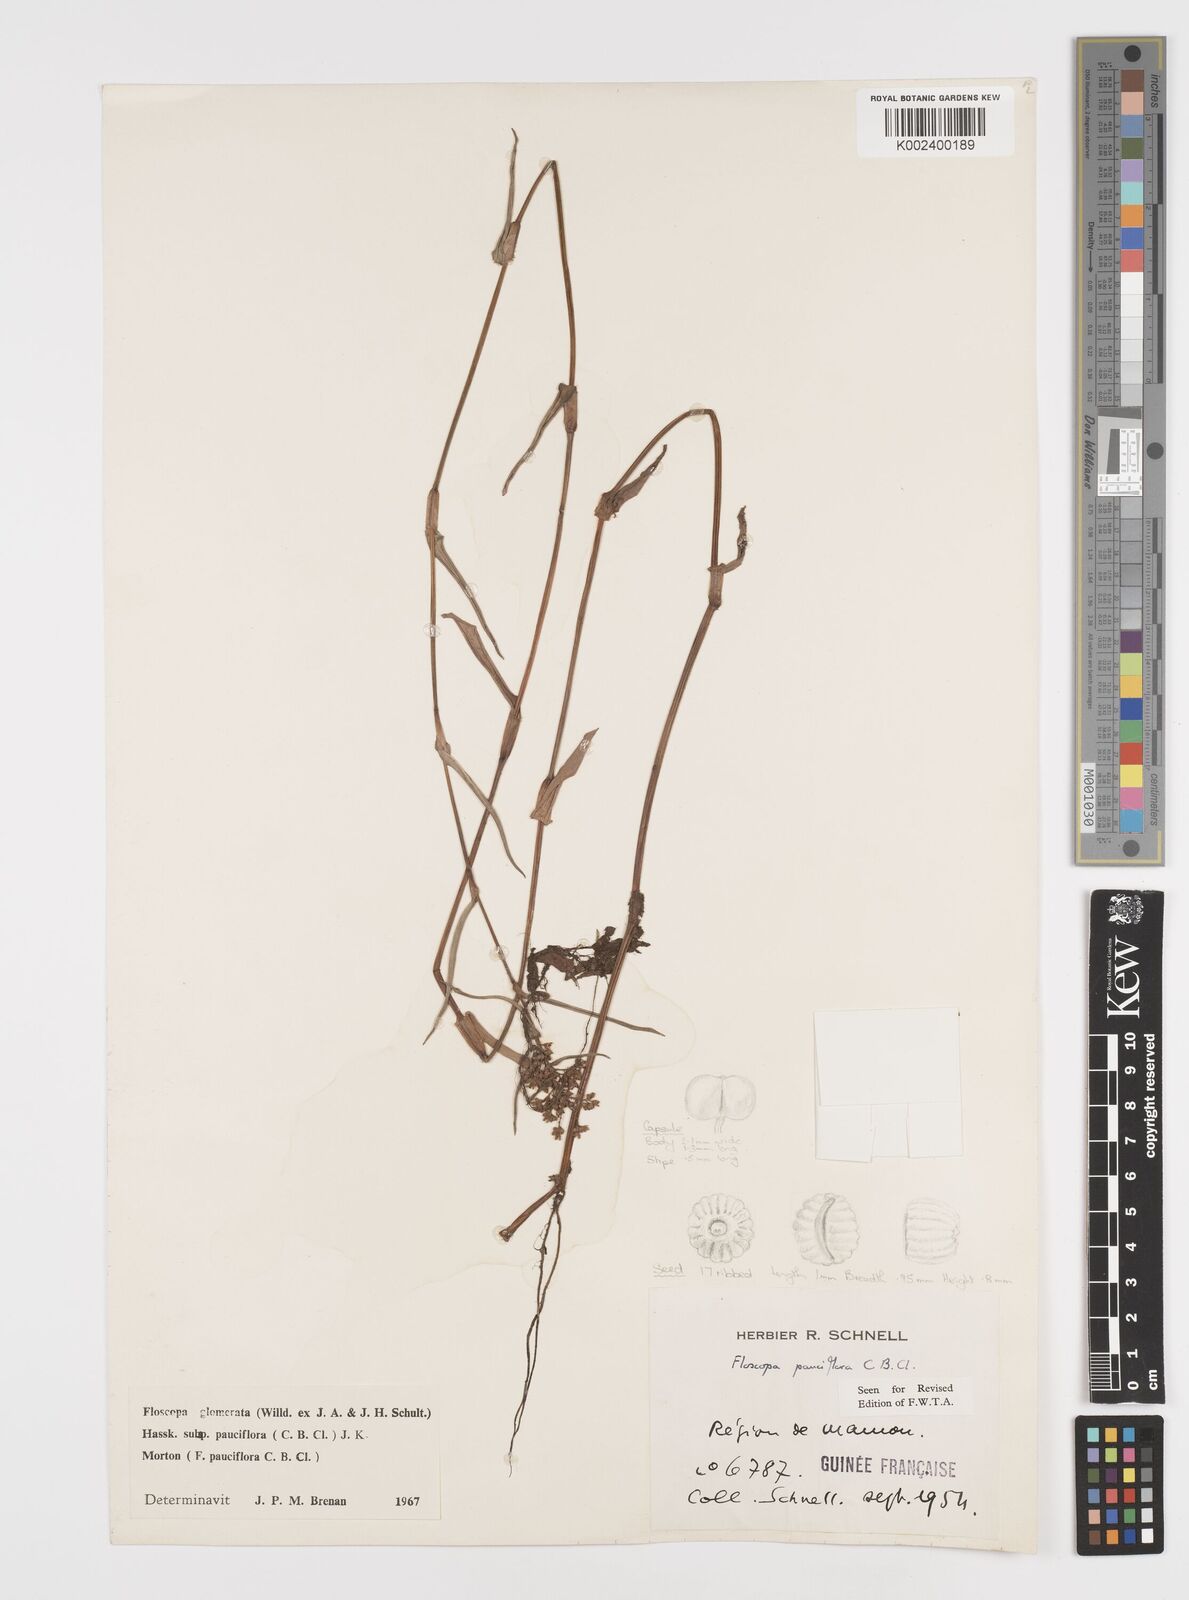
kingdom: Plantae
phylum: Tracheophyta
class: Liliopsida
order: Commelinales
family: Commelinaceae
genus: Floscopa
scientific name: Floscopa glomerata
